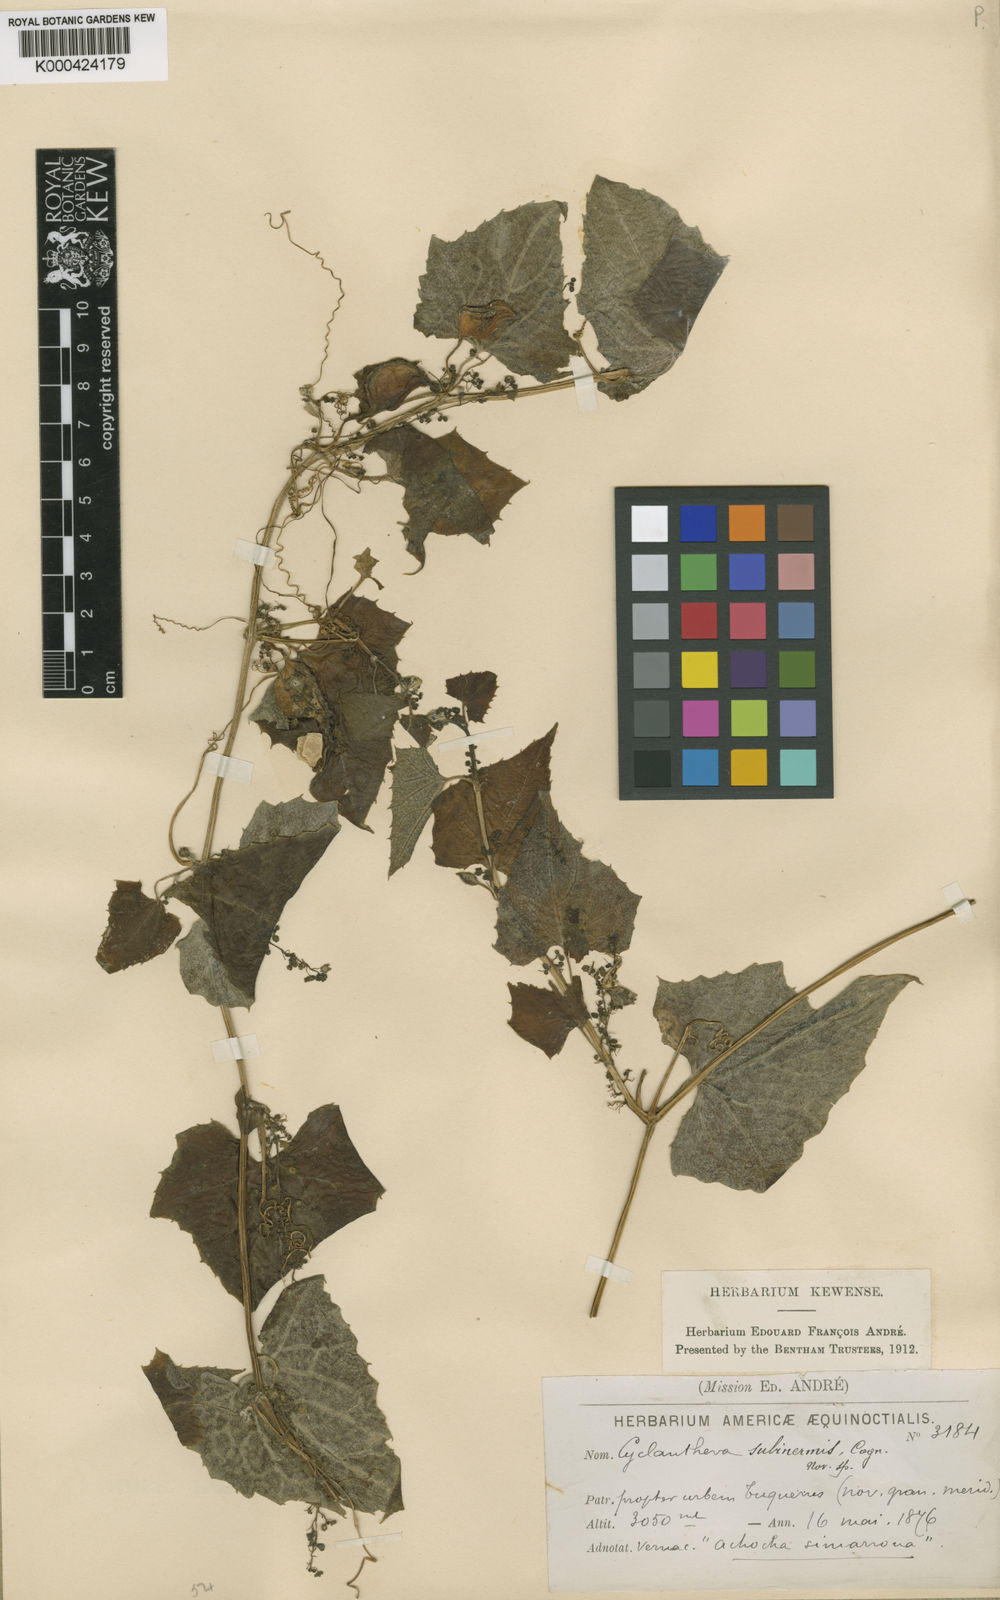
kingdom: Plantae
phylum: Tracheophyta
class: Magnoliopsida
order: Cucurbitales
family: Cucurbitaceae
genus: Cyclanthera
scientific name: Cyclanthera brachybotrys
